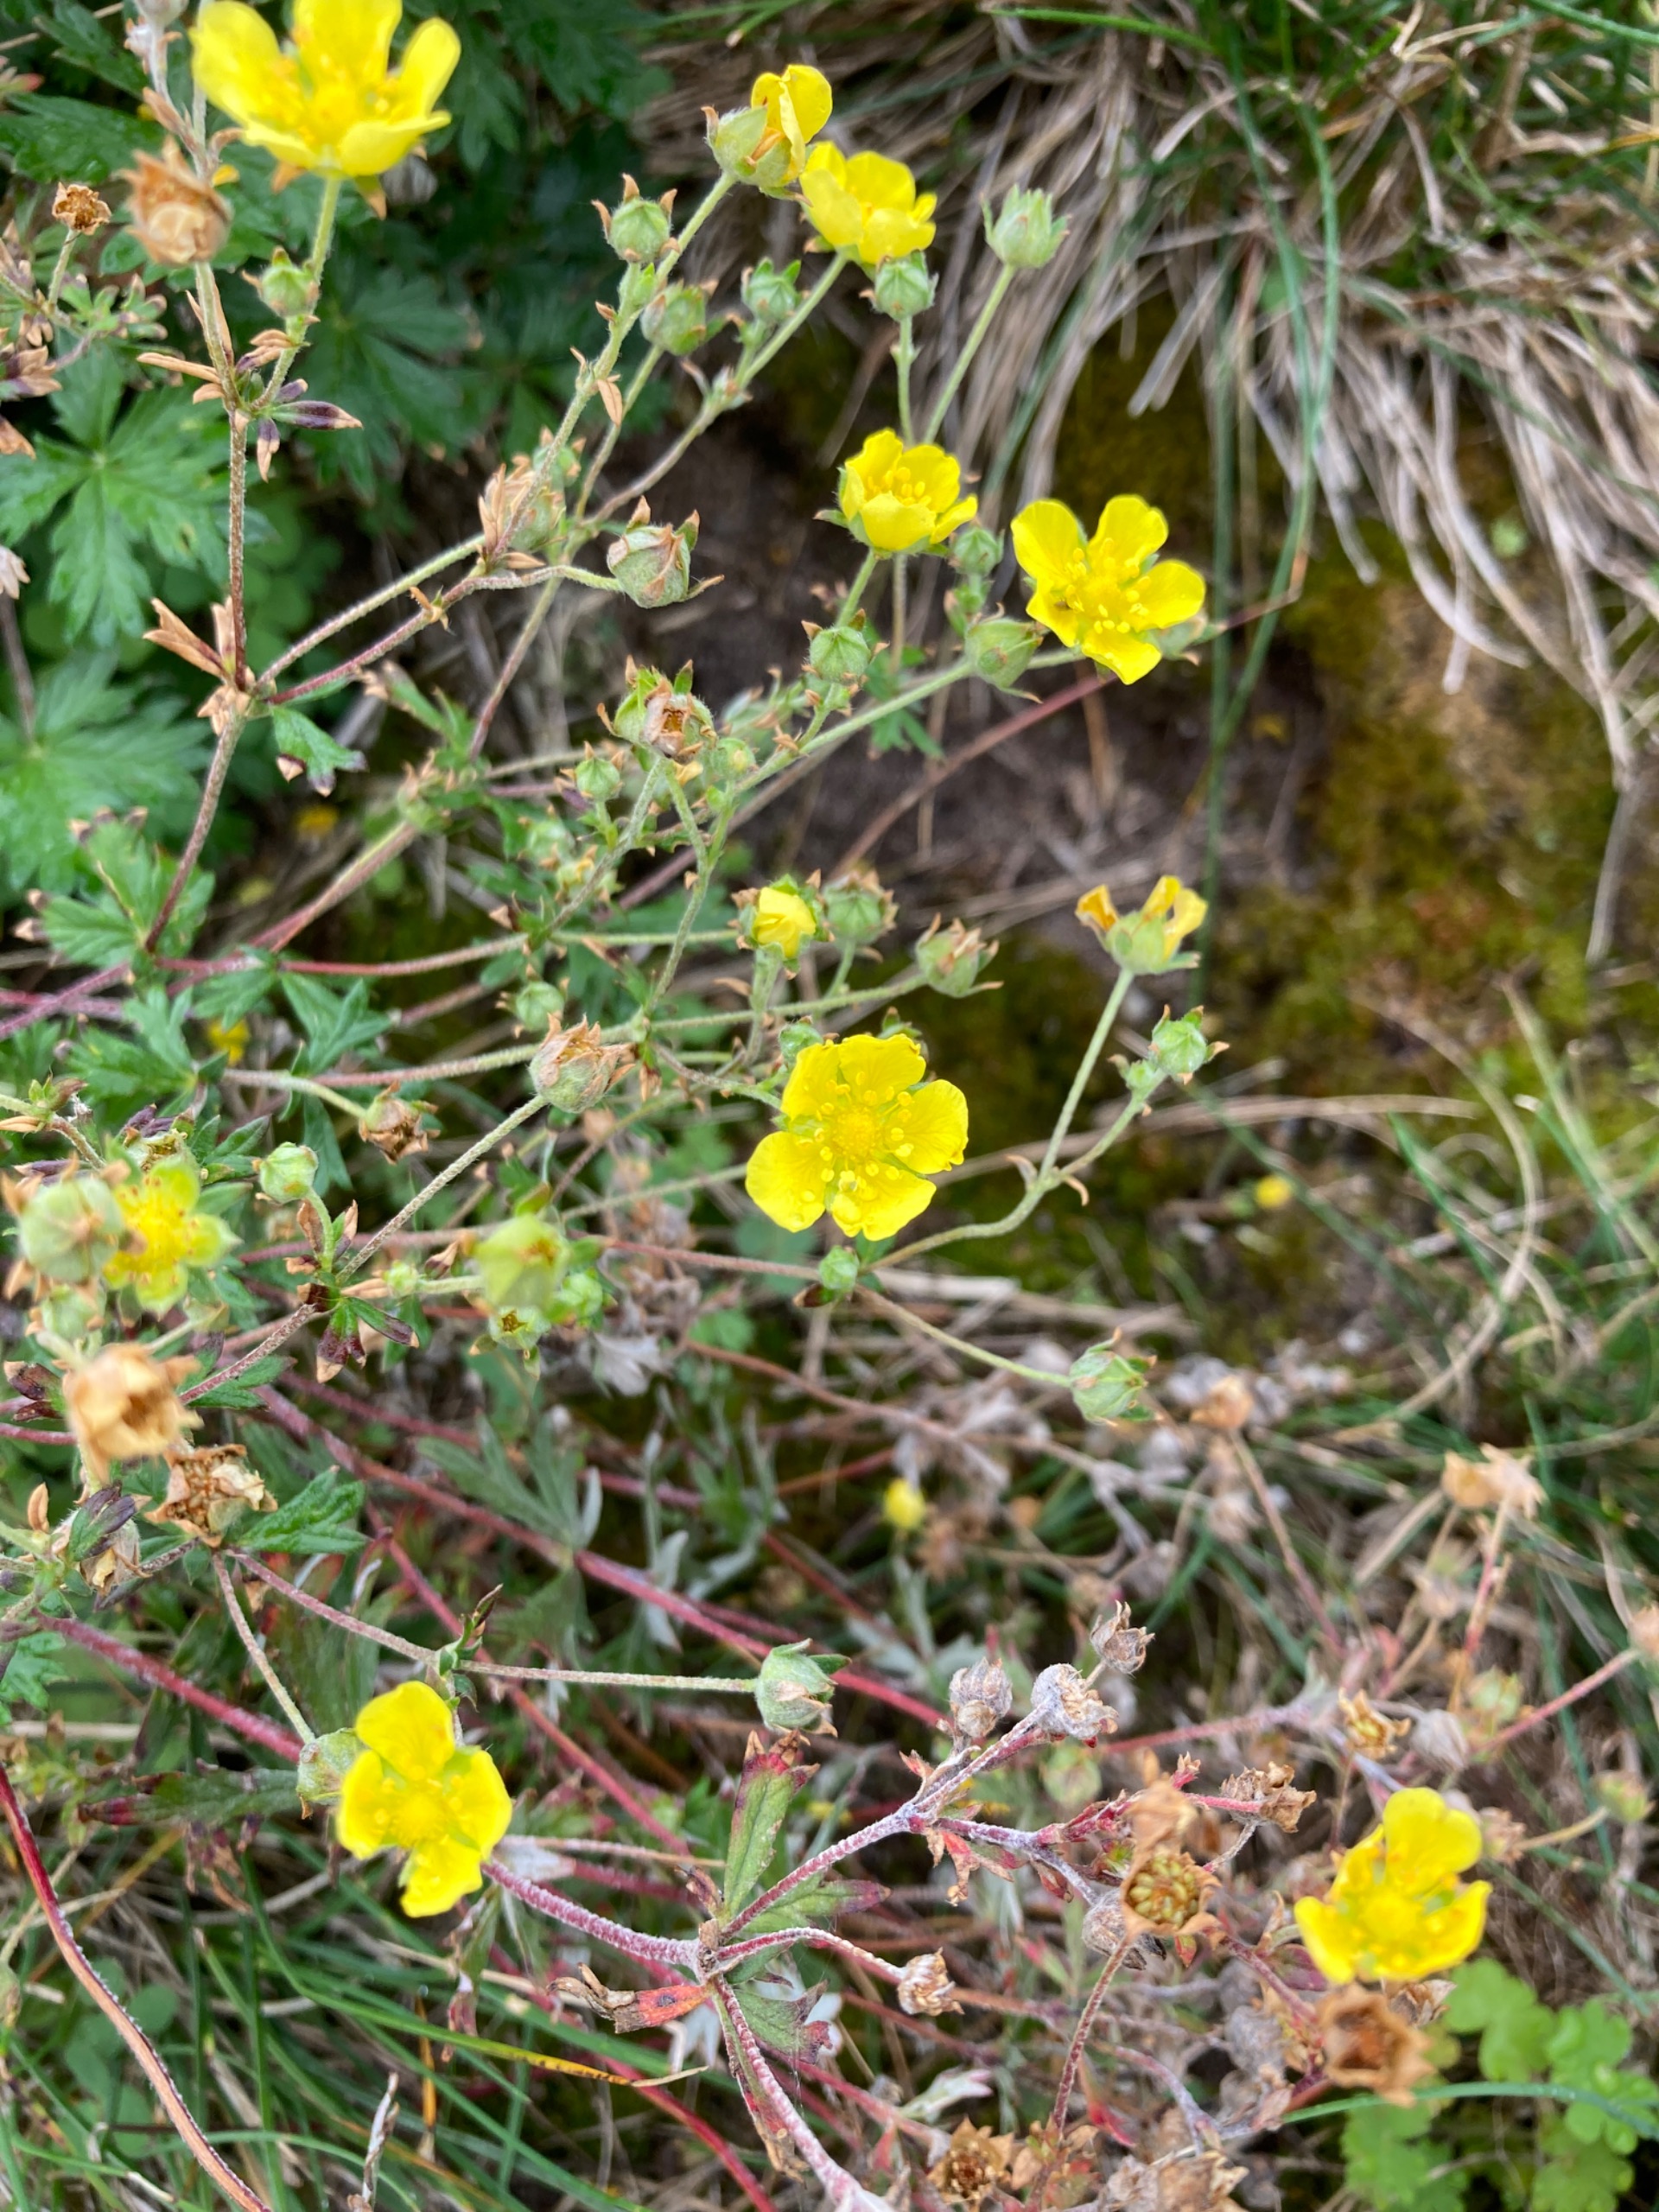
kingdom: Plantae
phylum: Tracheophyta
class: Magnoliopsida
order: Rosales
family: Rosaceae
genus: Potentilla
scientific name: Potentilla verna
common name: Vår-potentil
